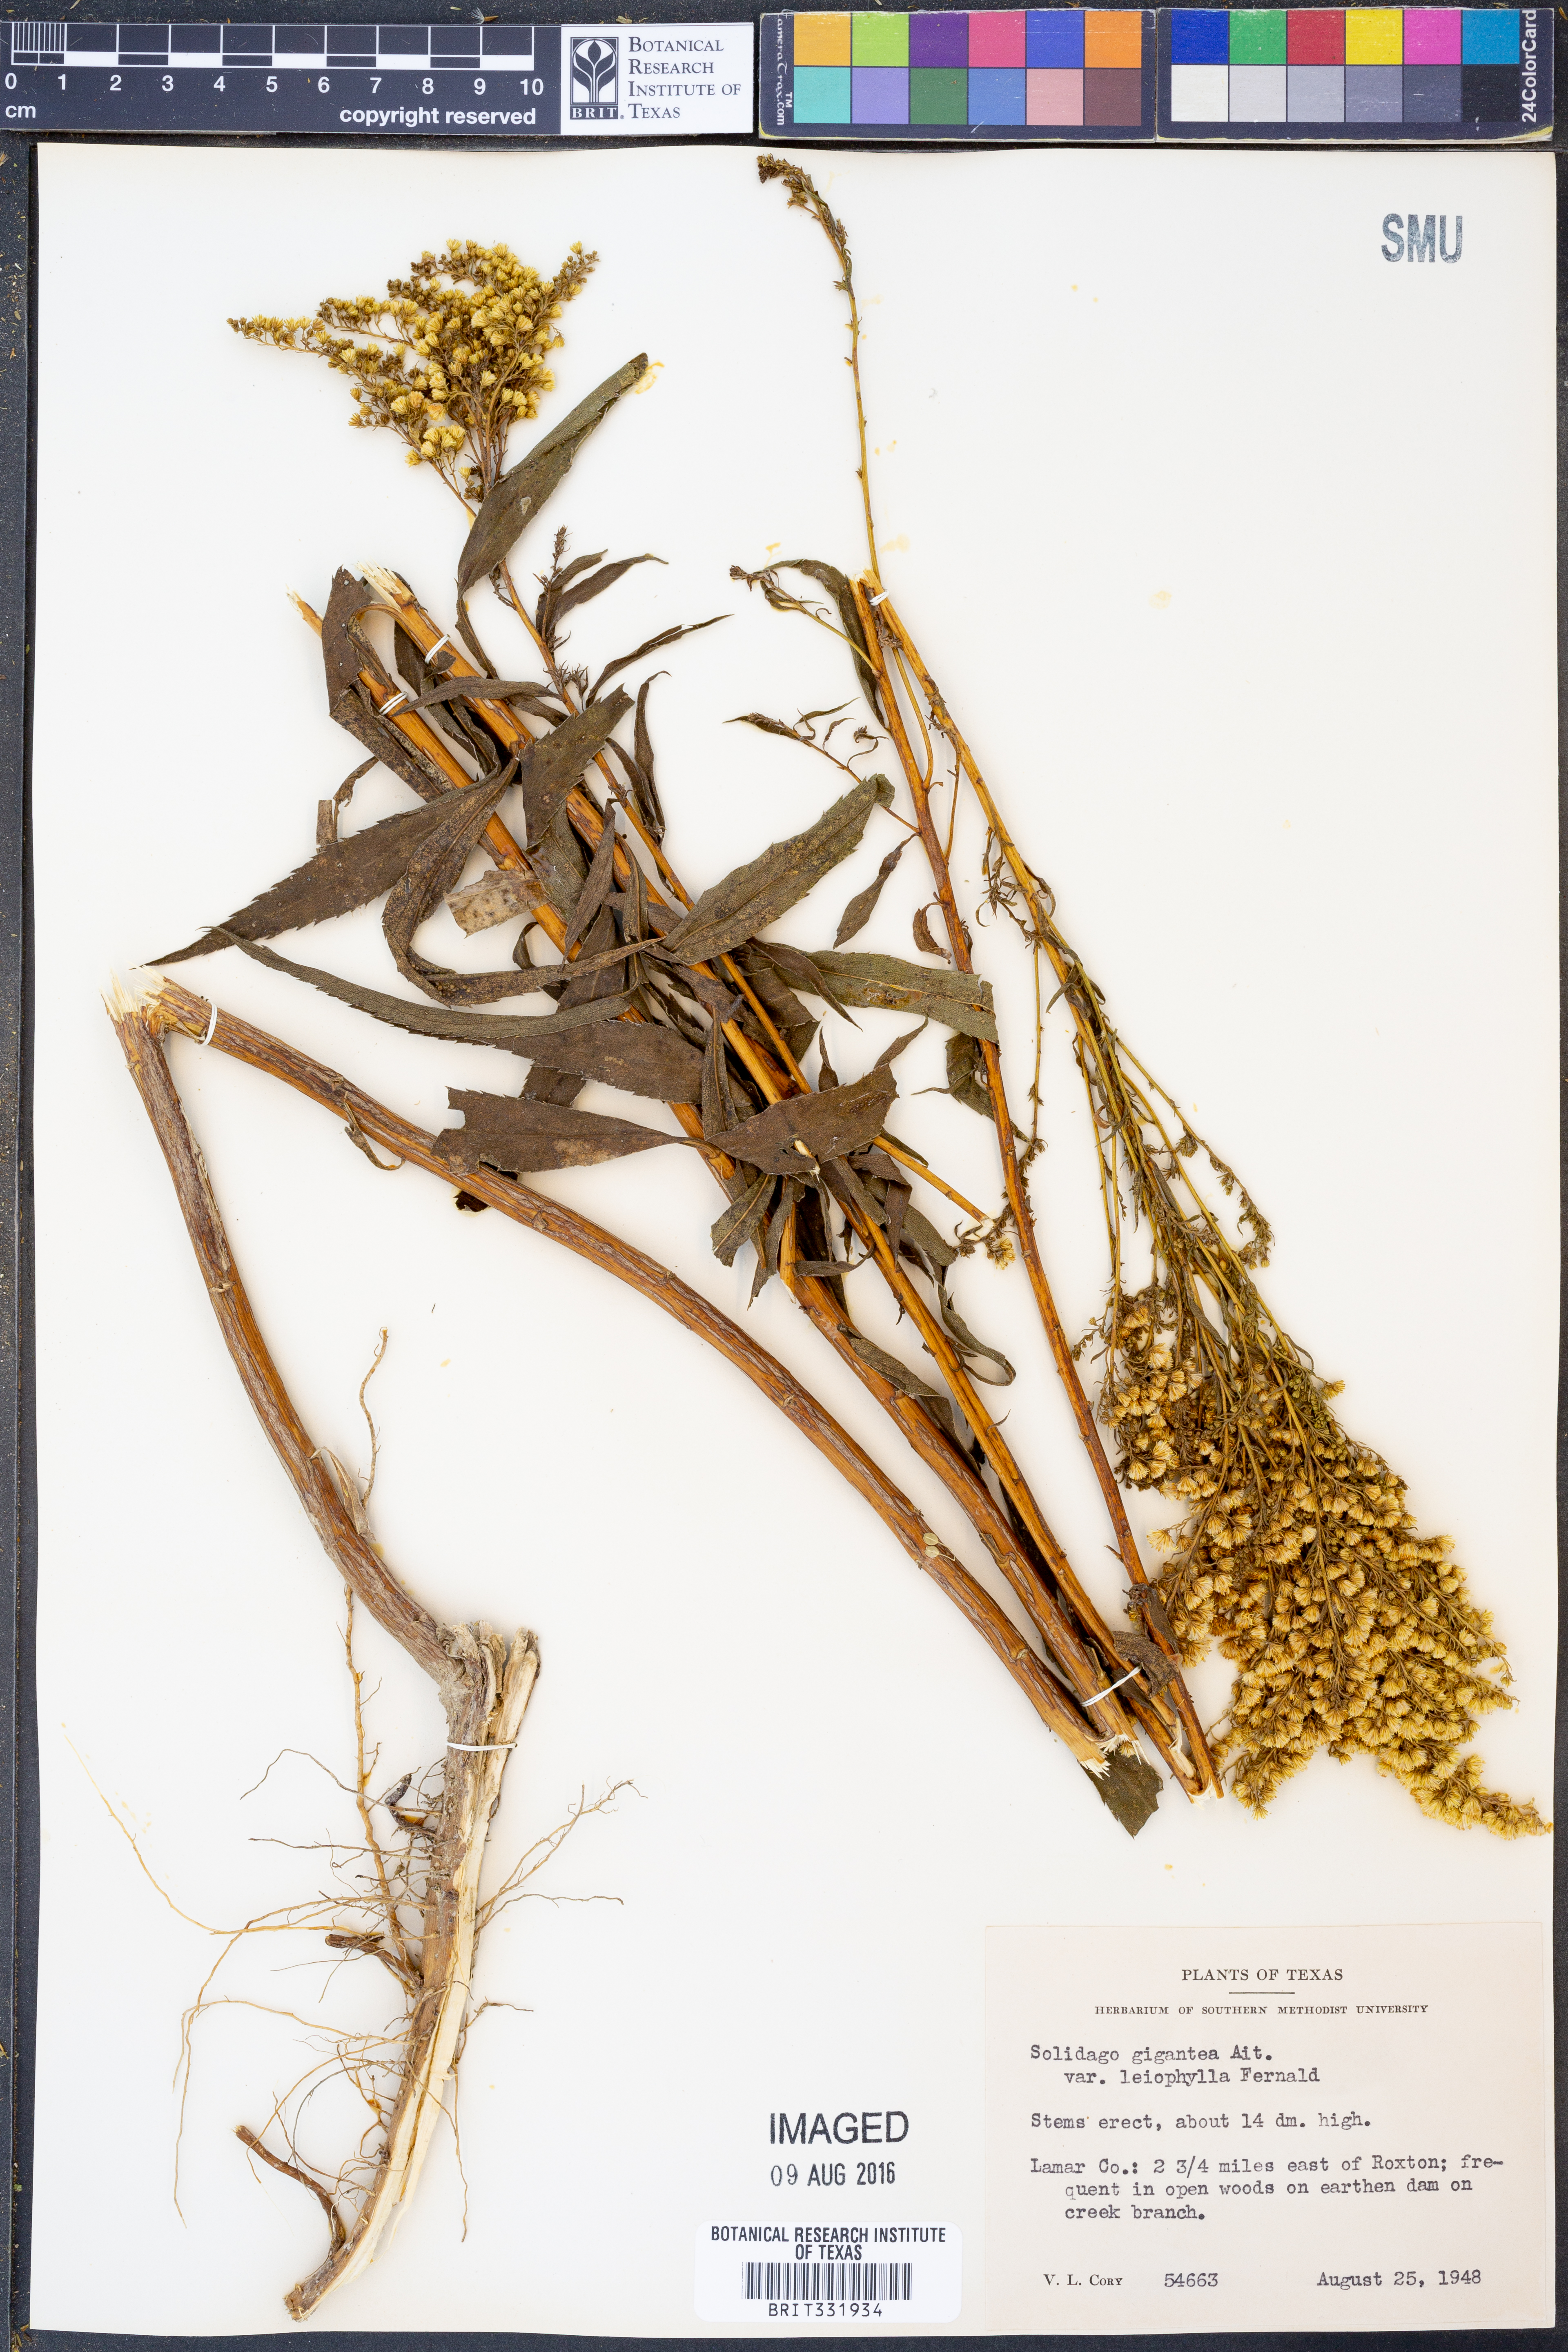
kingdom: Plantae
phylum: Tracheophyta
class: Magnoliopsida
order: Asterales
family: Asteraceae
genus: Solidago
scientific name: Solidago gigantea
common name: Giant goldenrod
